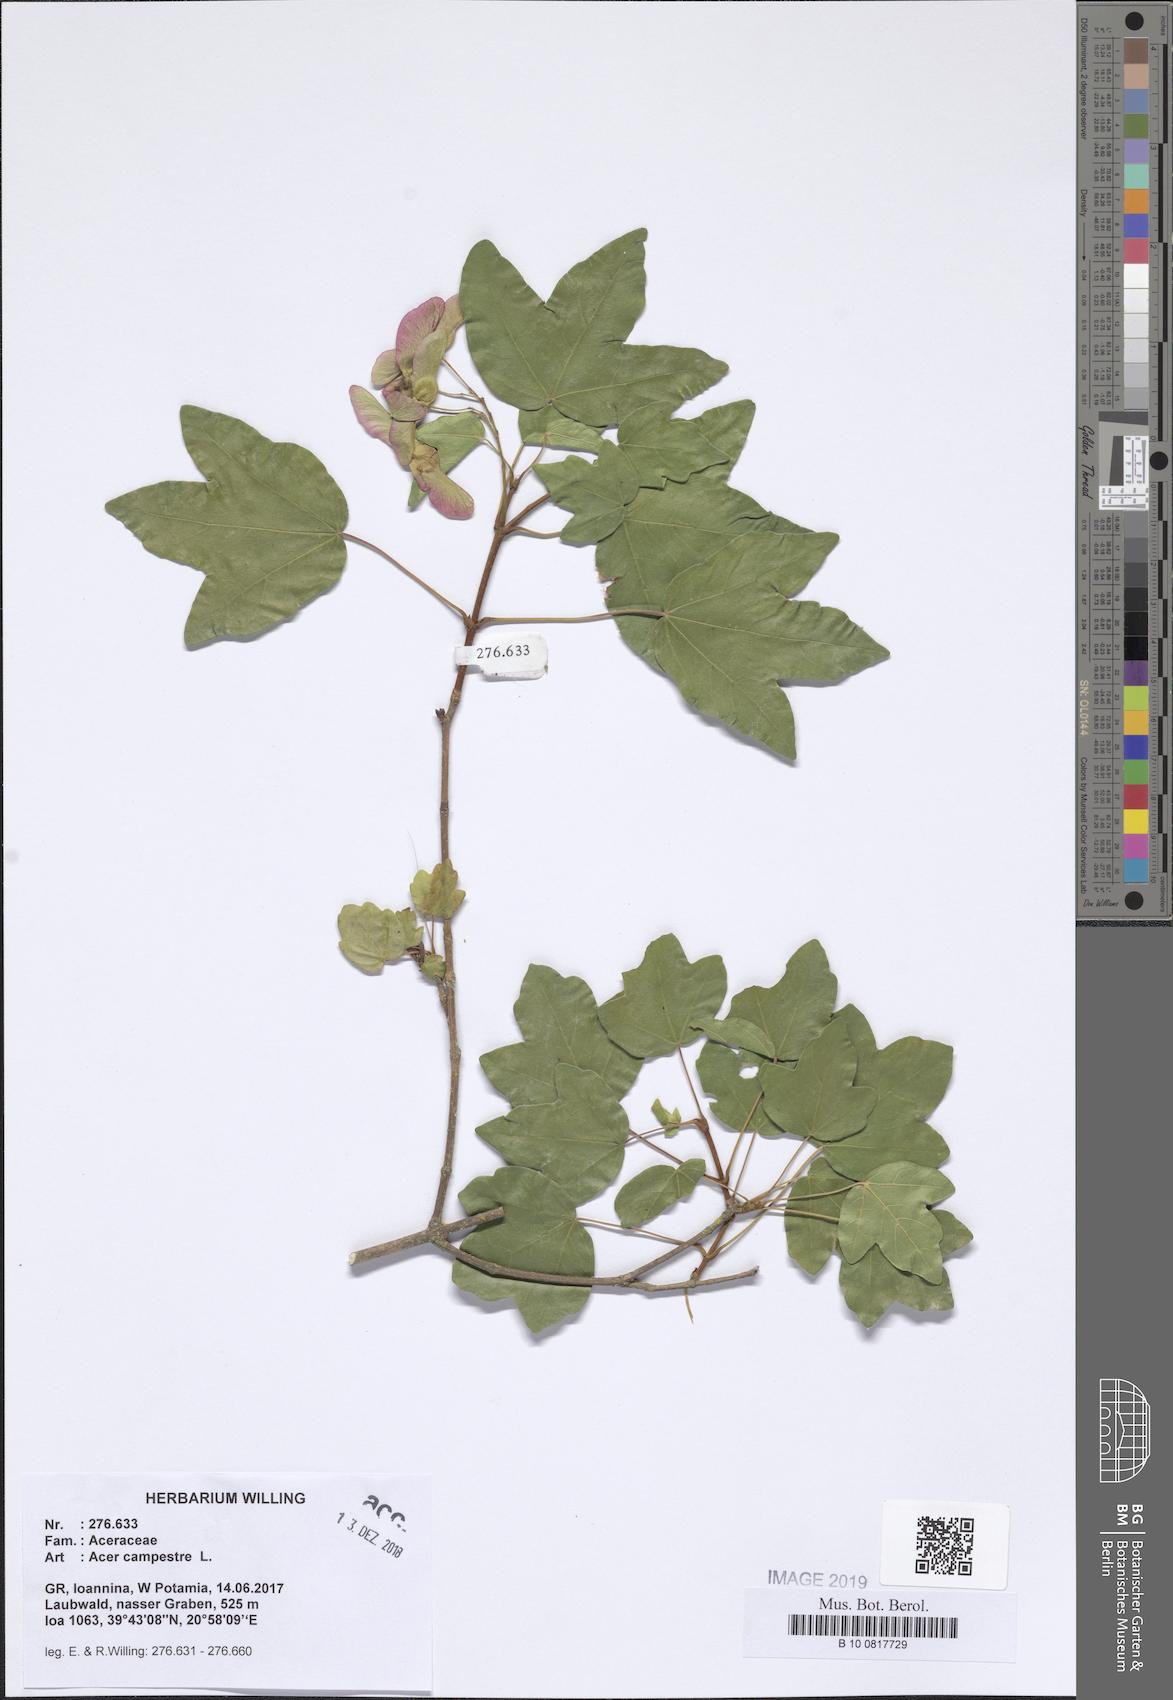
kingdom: Plantae
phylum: Tracheophyta
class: Magnoliopsida
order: Sapindales
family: Sapindaceae
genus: Acer
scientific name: Acer campestre
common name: Field maple
